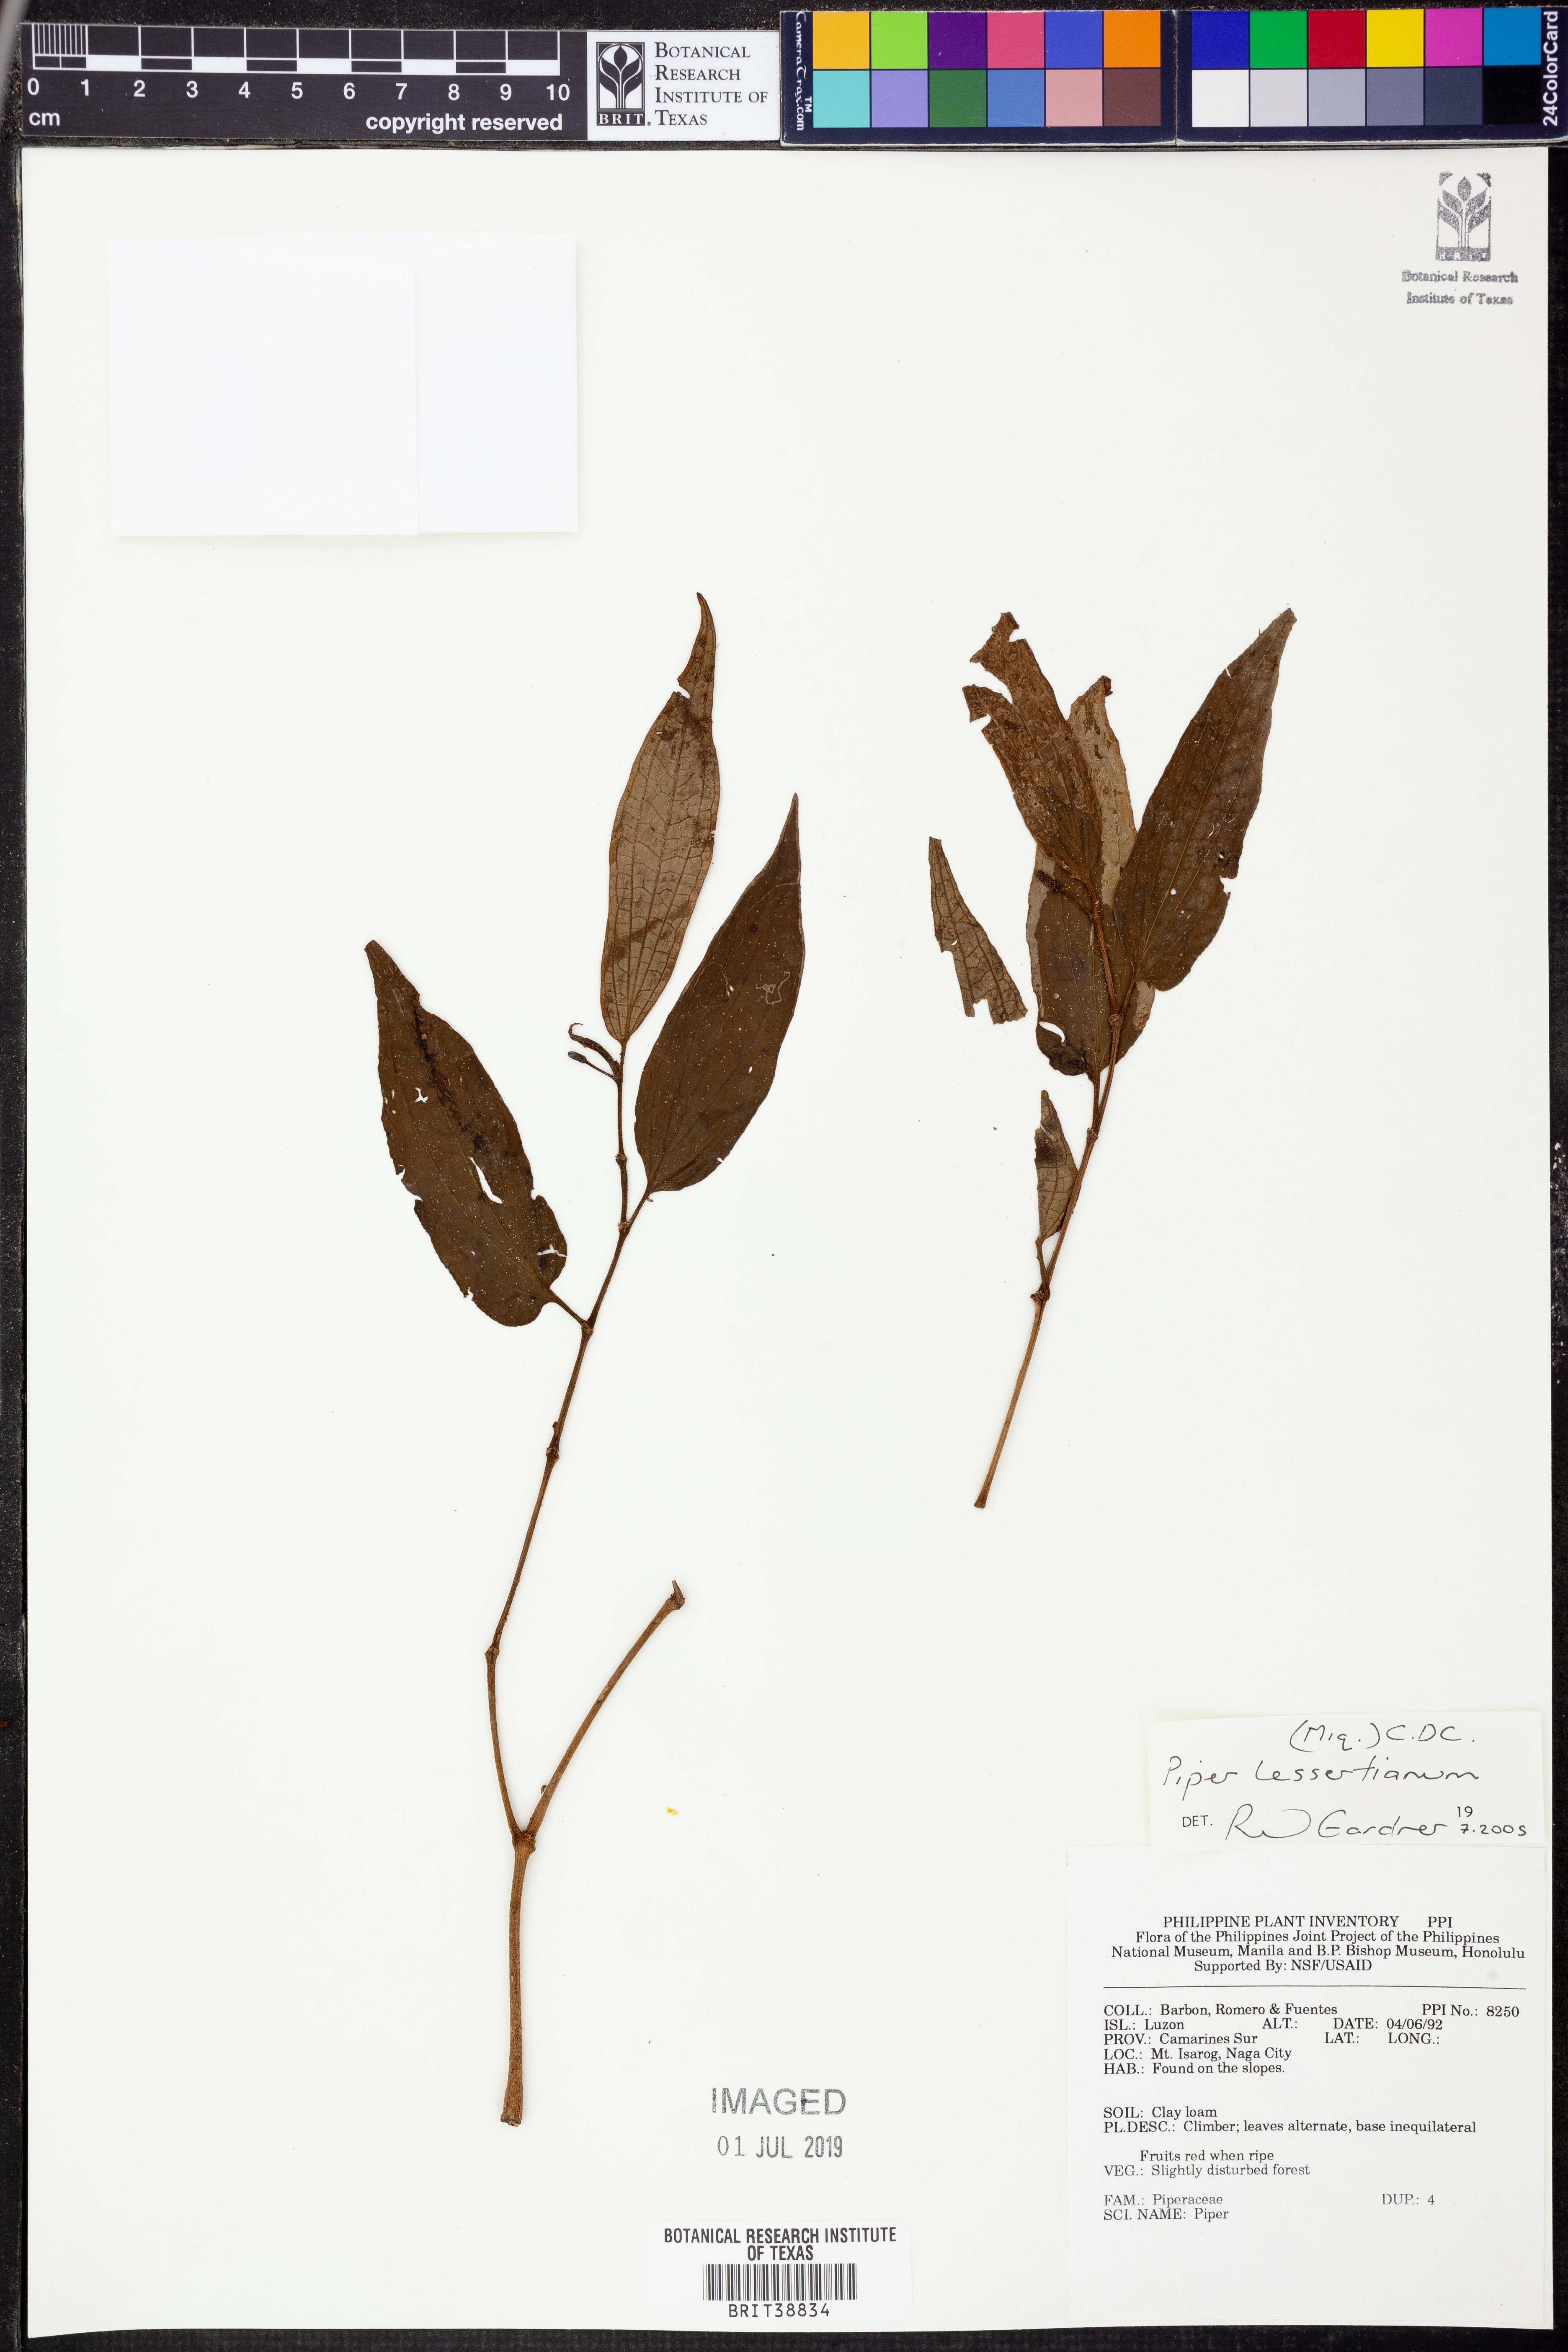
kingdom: Plantae
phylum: Tracheophyta
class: Magnoliopsida
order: Piperales
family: Piperaceae
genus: Piper
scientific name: Piper lessertianum
